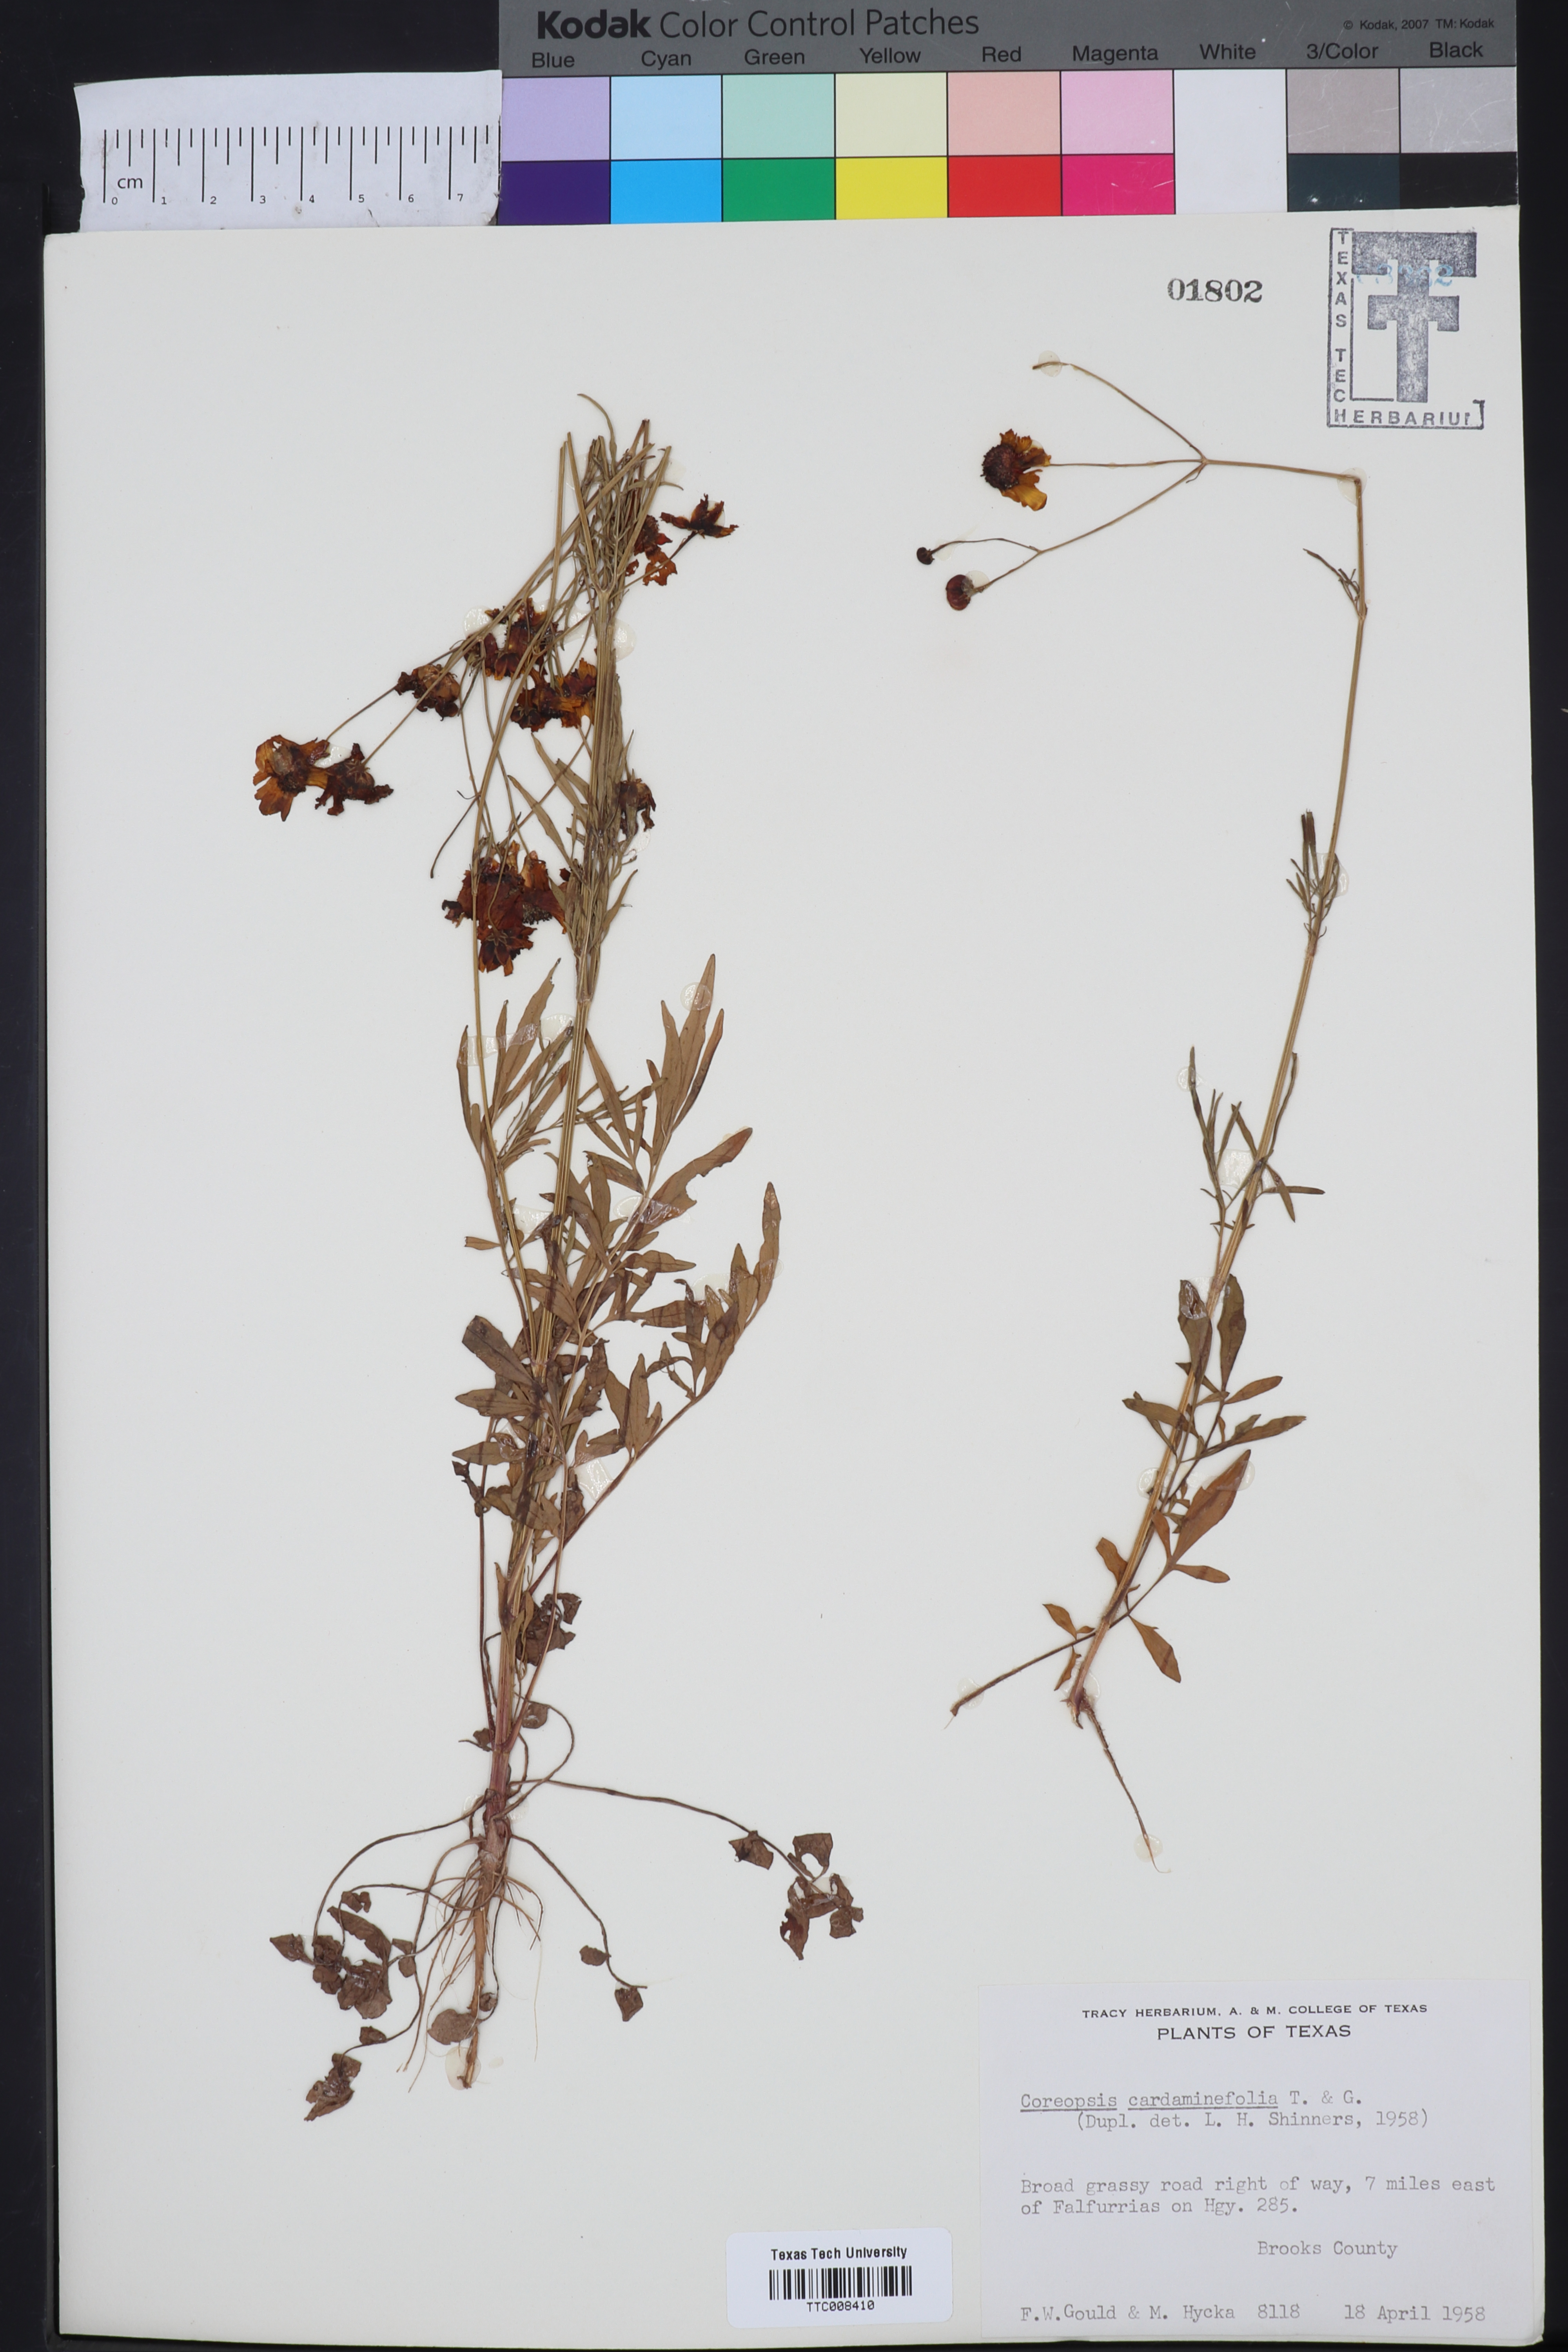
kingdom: Plantae
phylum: Tracheophyta
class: Magnoliopsida
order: Asterales
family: Asteraceae
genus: Coreopsis
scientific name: Coreopsis tinctoria
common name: Garden tickseed
